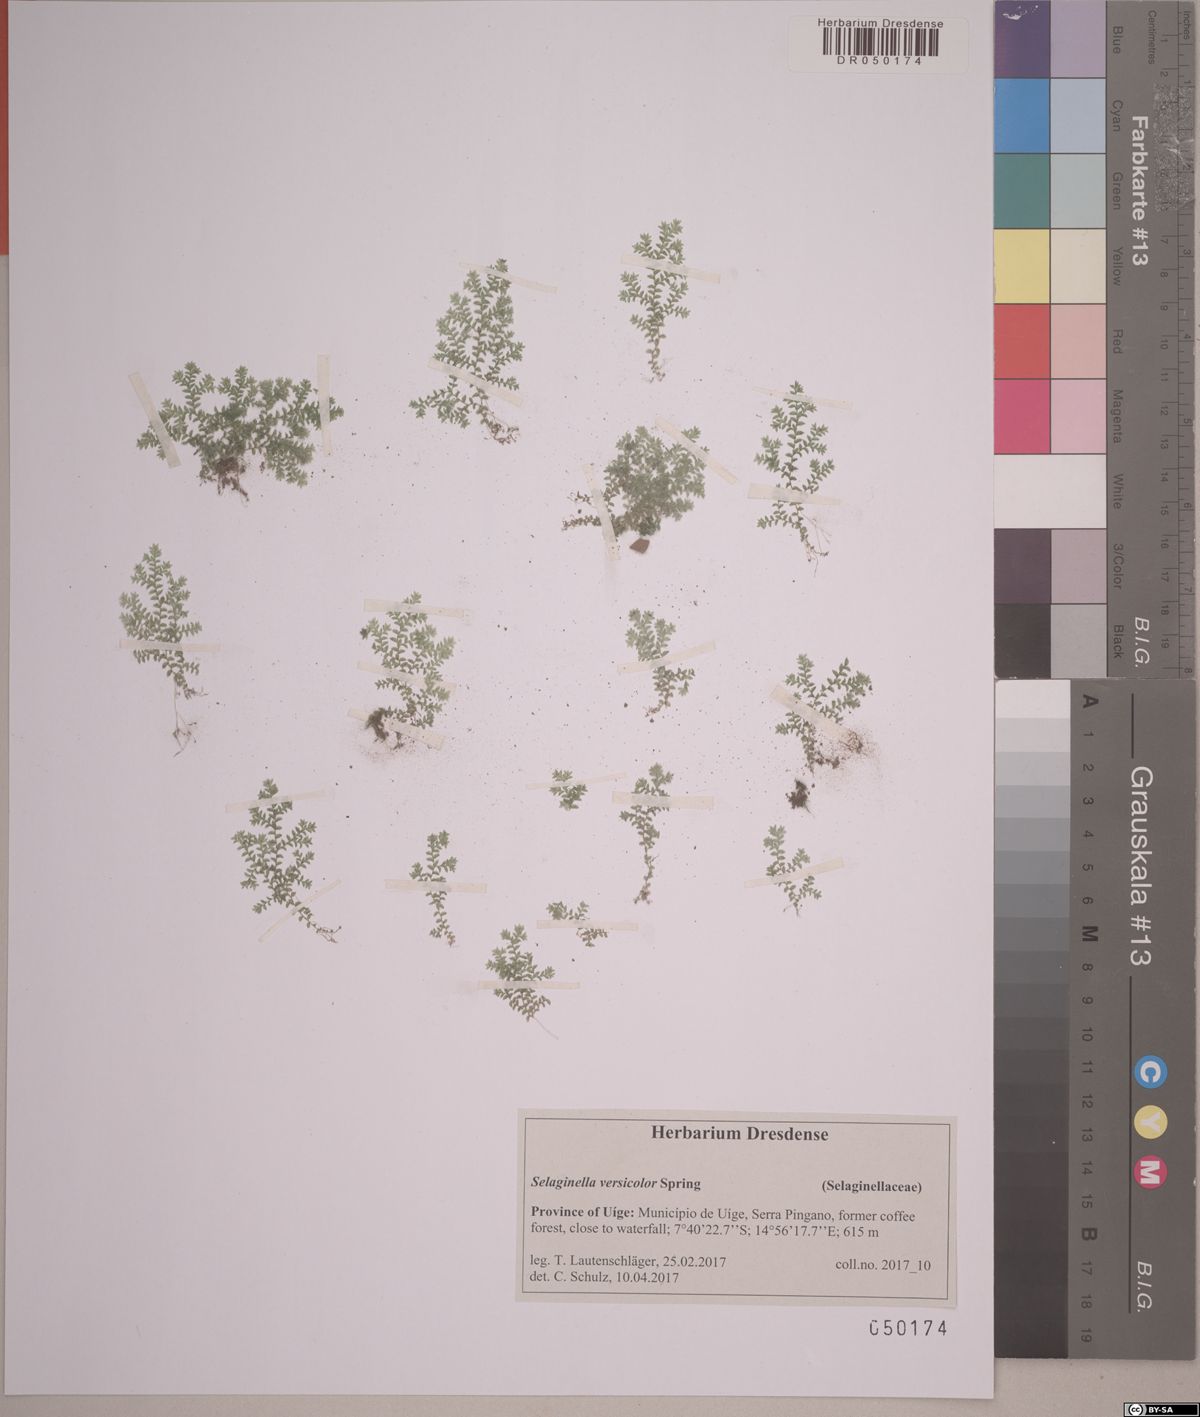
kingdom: Plantae
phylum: Tracheophyta
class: Lycopodiopsida
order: Selaginellales
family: Selaginellaceae
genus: Selaginella
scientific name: Selaginella versicolor
